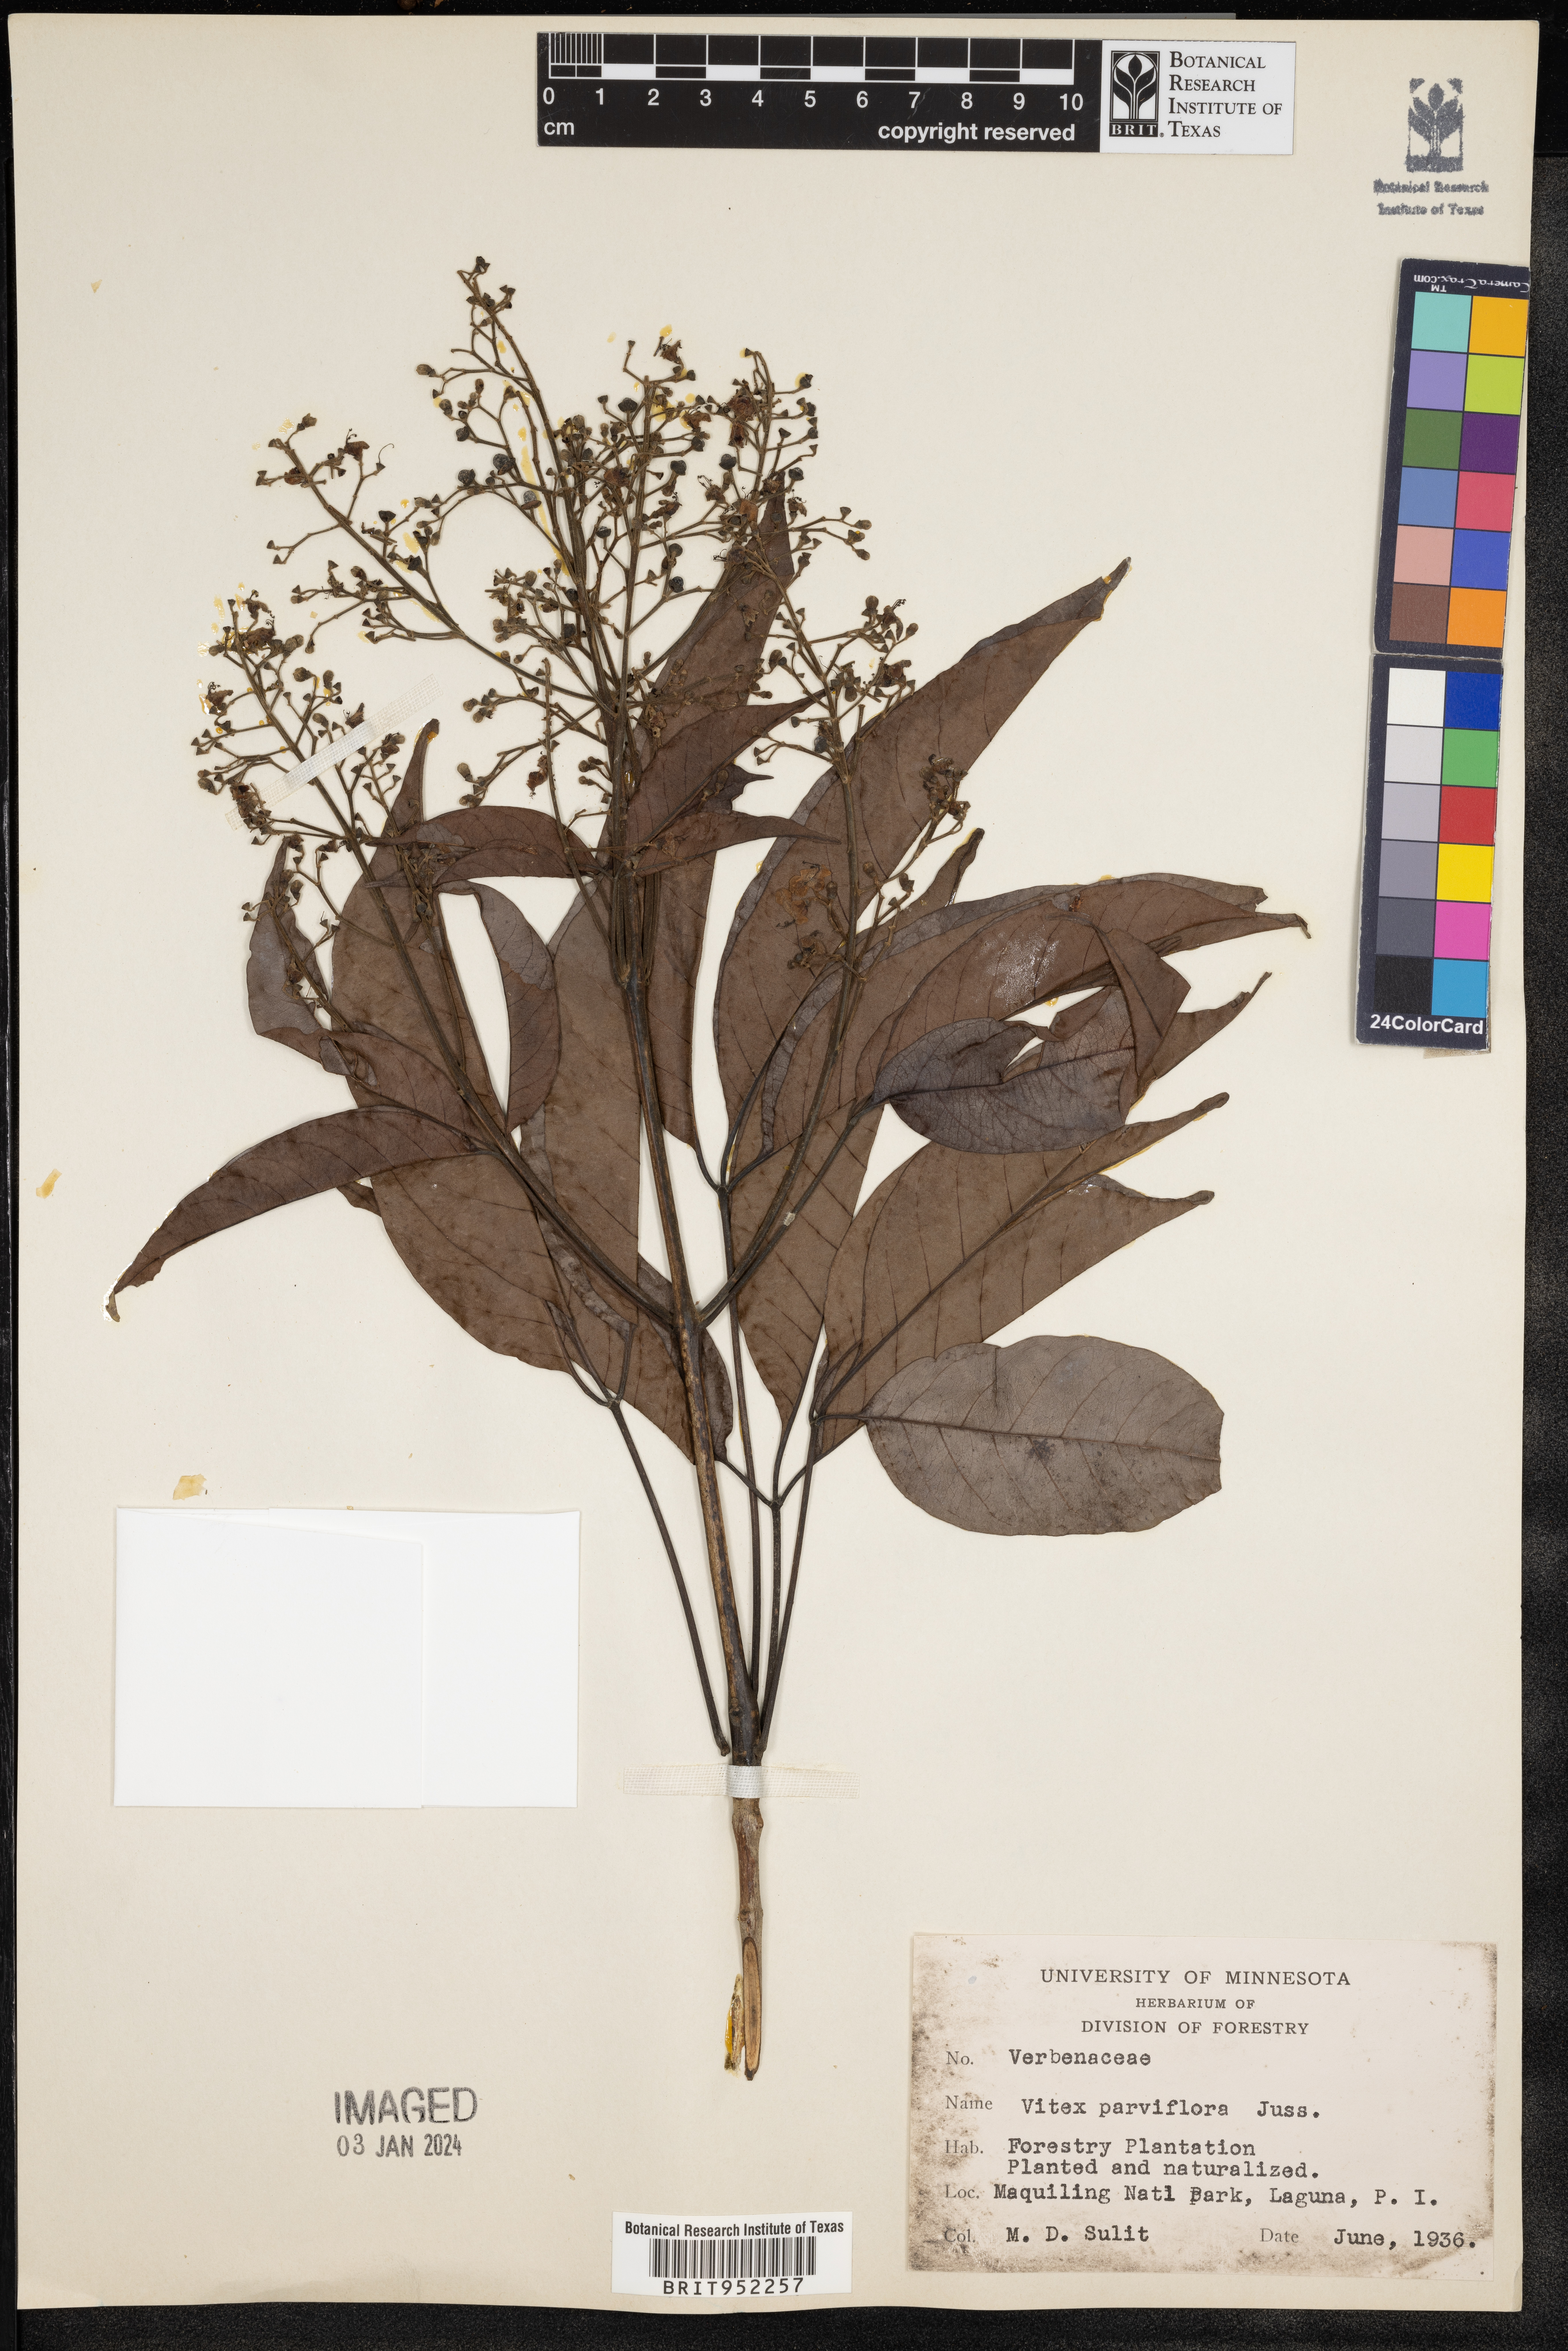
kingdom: Plantae
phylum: Tracheophyta
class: Magnoliopsida
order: Lamiales
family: Lamiaceae
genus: Vitex
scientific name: Vitex parviflora
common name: Smallflower chastetree
